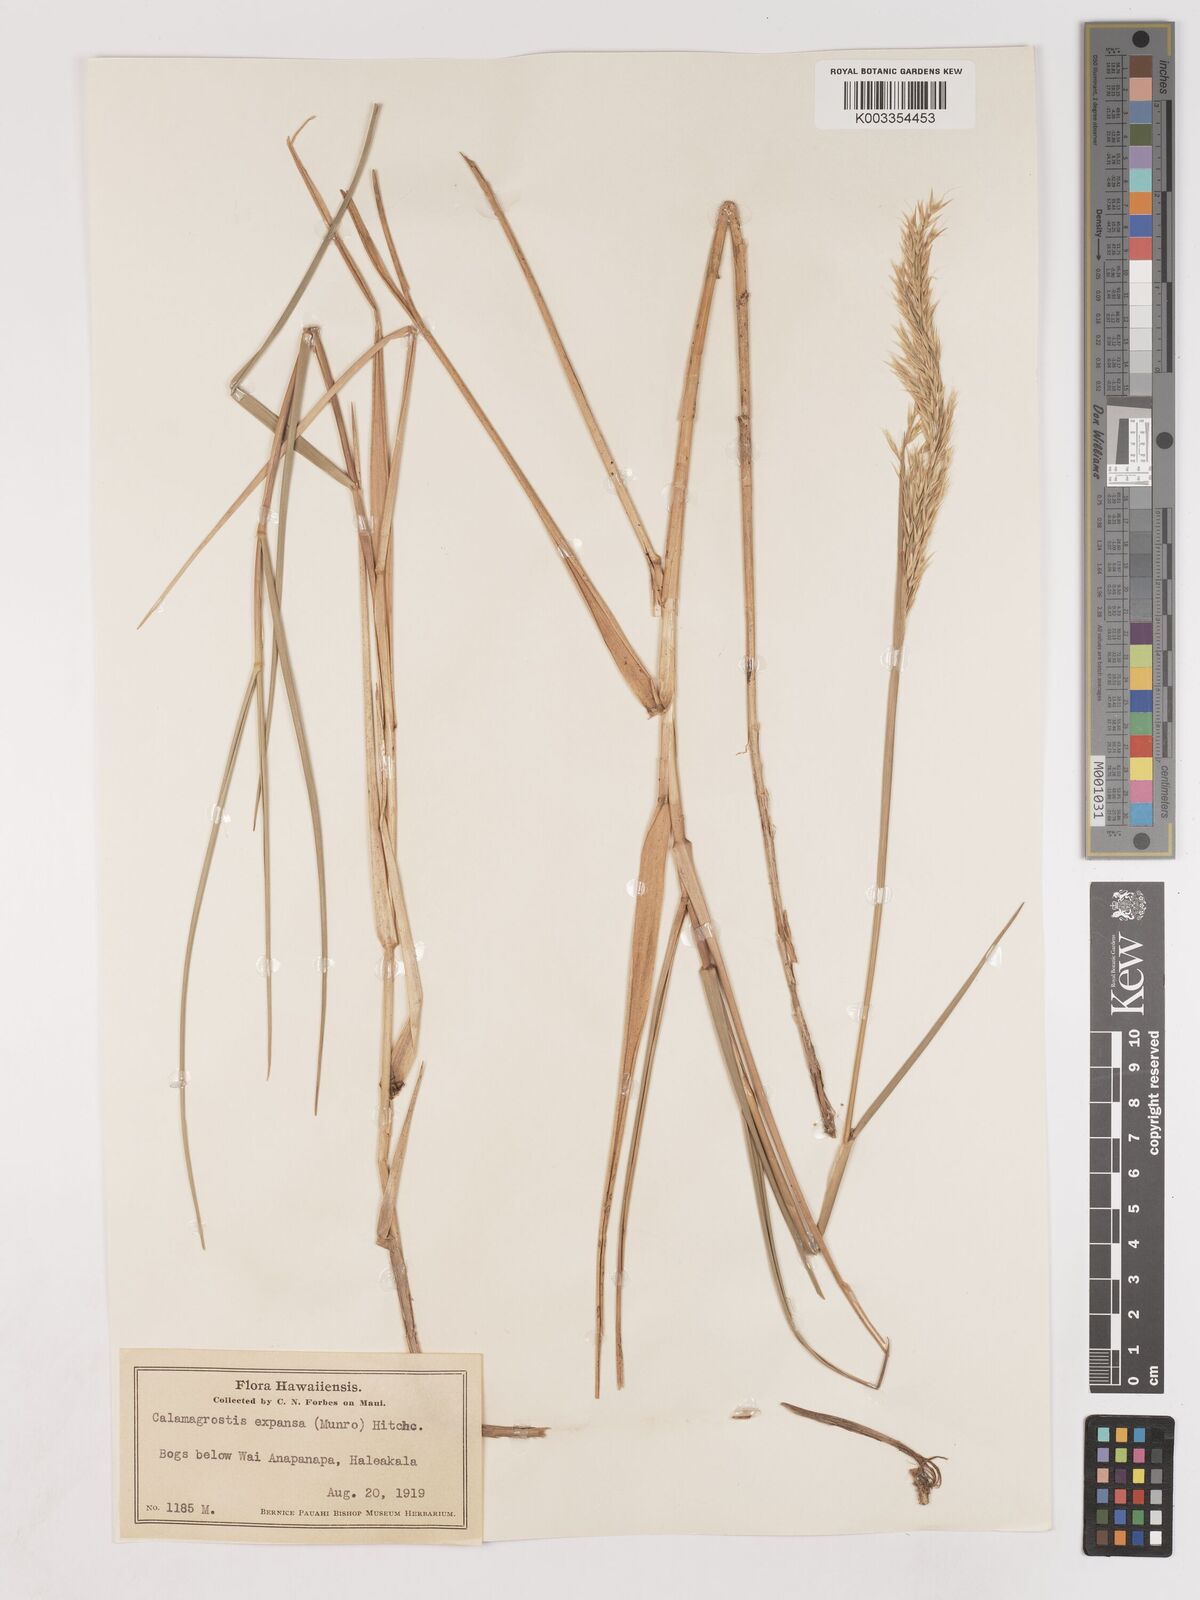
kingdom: Plantae
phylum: Tracheophyta
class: Liliopsida
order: Poales
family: Poaceae
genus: Calamagrostis
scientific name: Calamagrostis expansa
